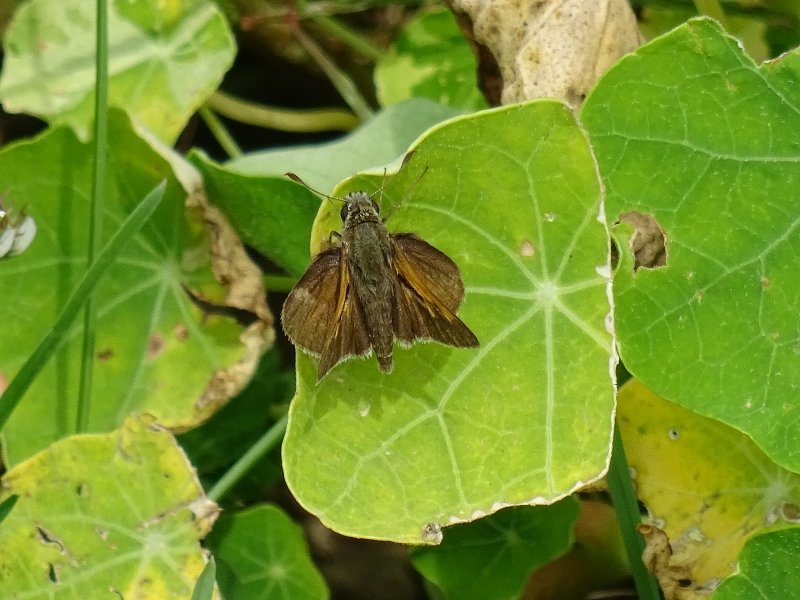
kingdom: Animalia
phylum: Arthropoda
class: Insecta
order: Lepidoptera
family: Hesperiidae
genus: Polites
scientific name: Polites themistocles
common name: Tawny-edged Skipper
